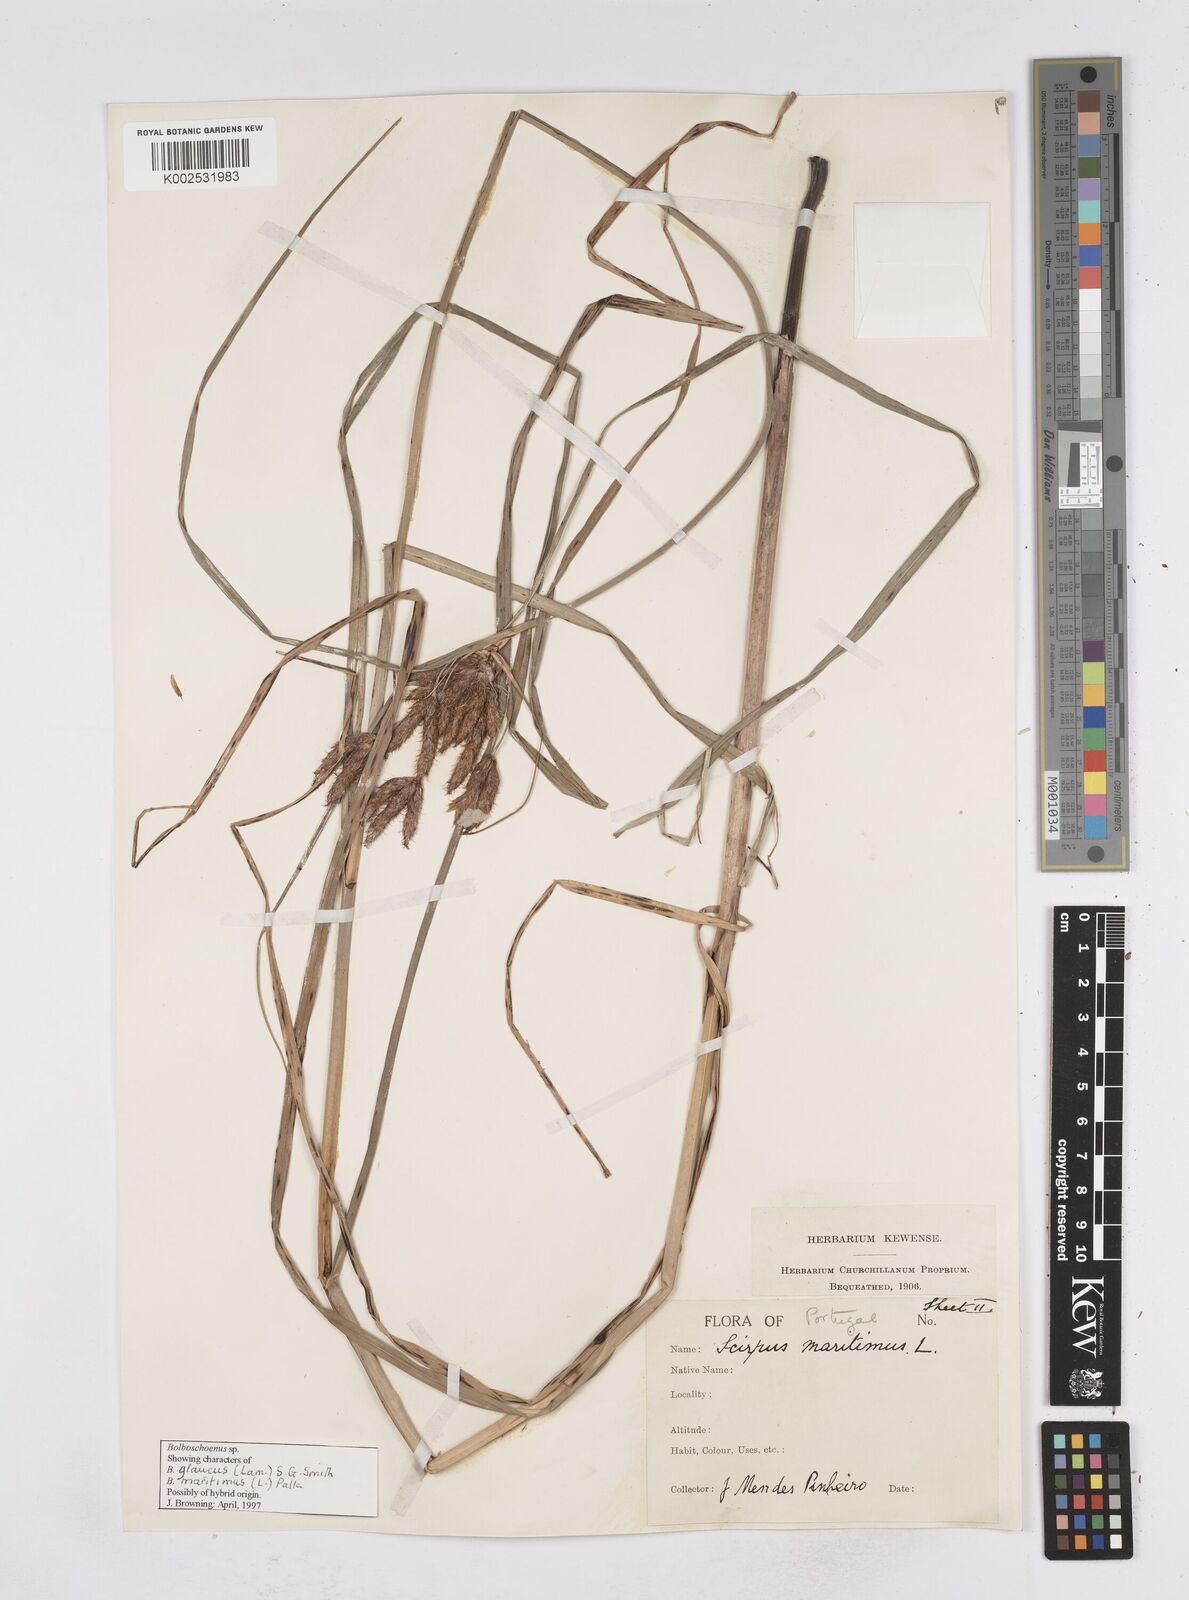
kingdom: Plantae
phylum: Tracheophyta
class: Liliopsida
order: Poales
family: Cyperaceae
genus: Bolboschoenus
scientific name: Bolboschoenus maritimus
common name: Sea club-rush
